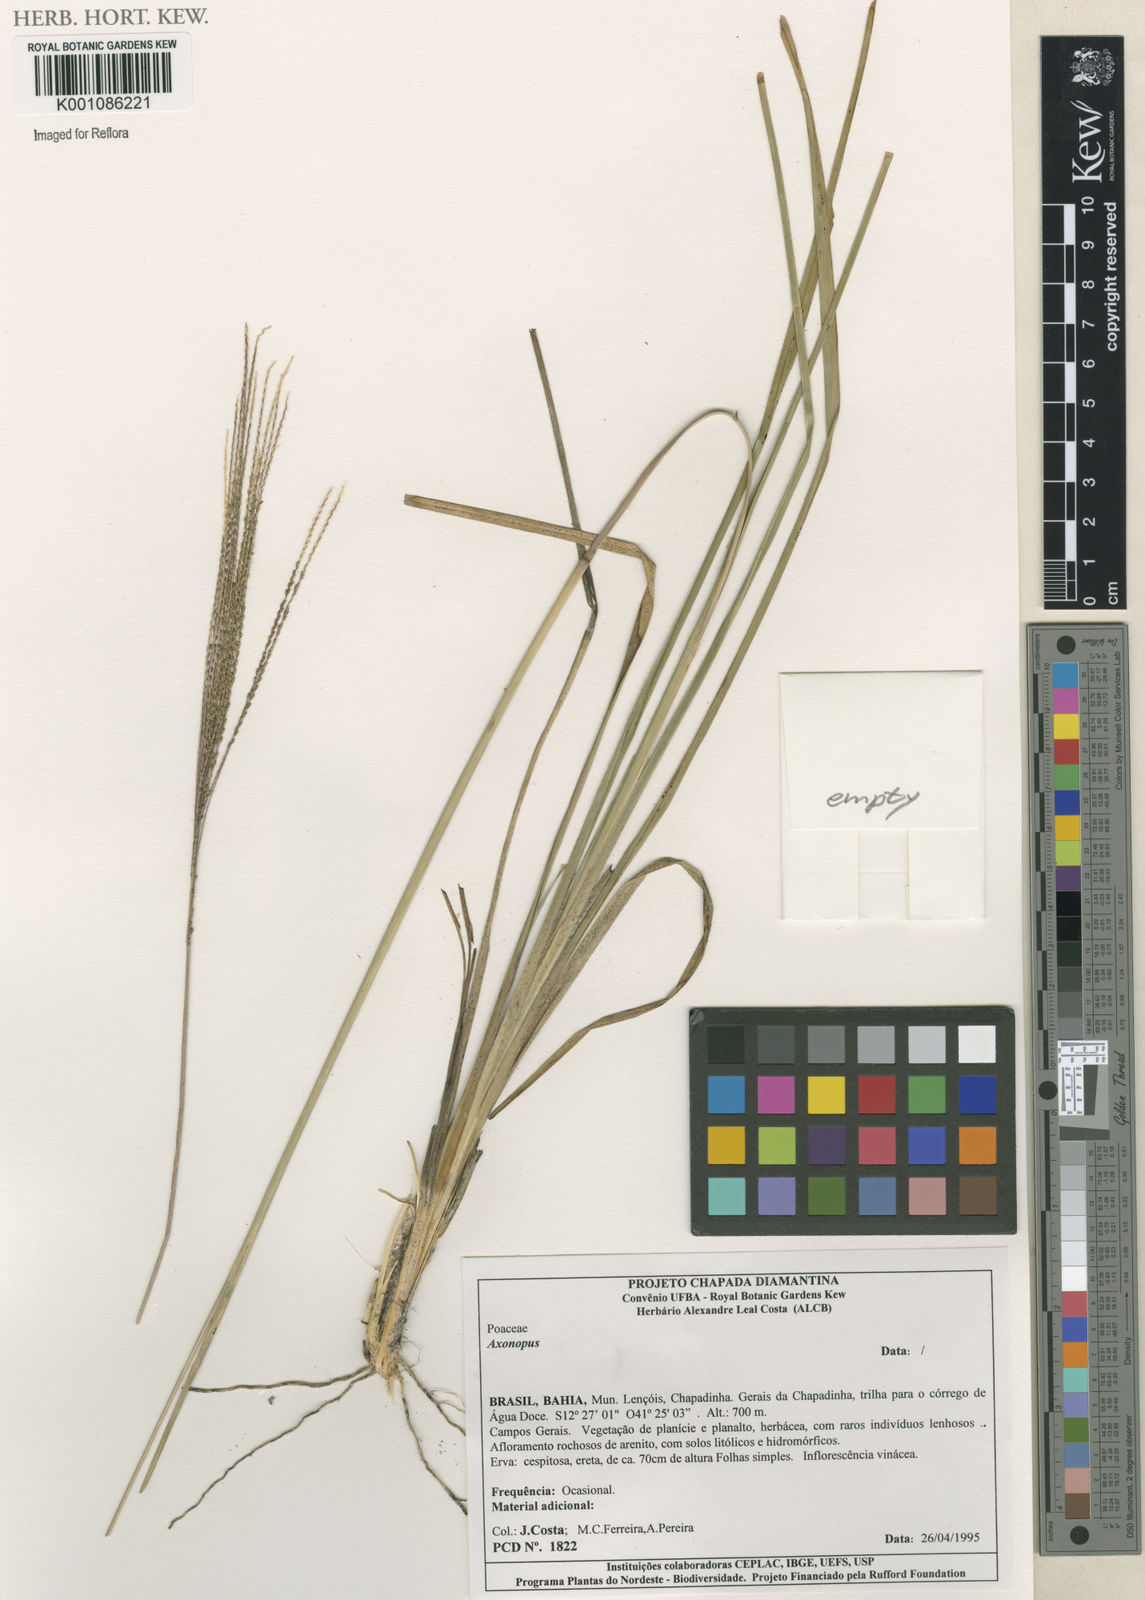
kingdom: Plantae
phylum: Tracheophyta
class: Liliopsida
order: Poales
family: Poaceae
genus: Axonopus
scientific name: Axonopus
